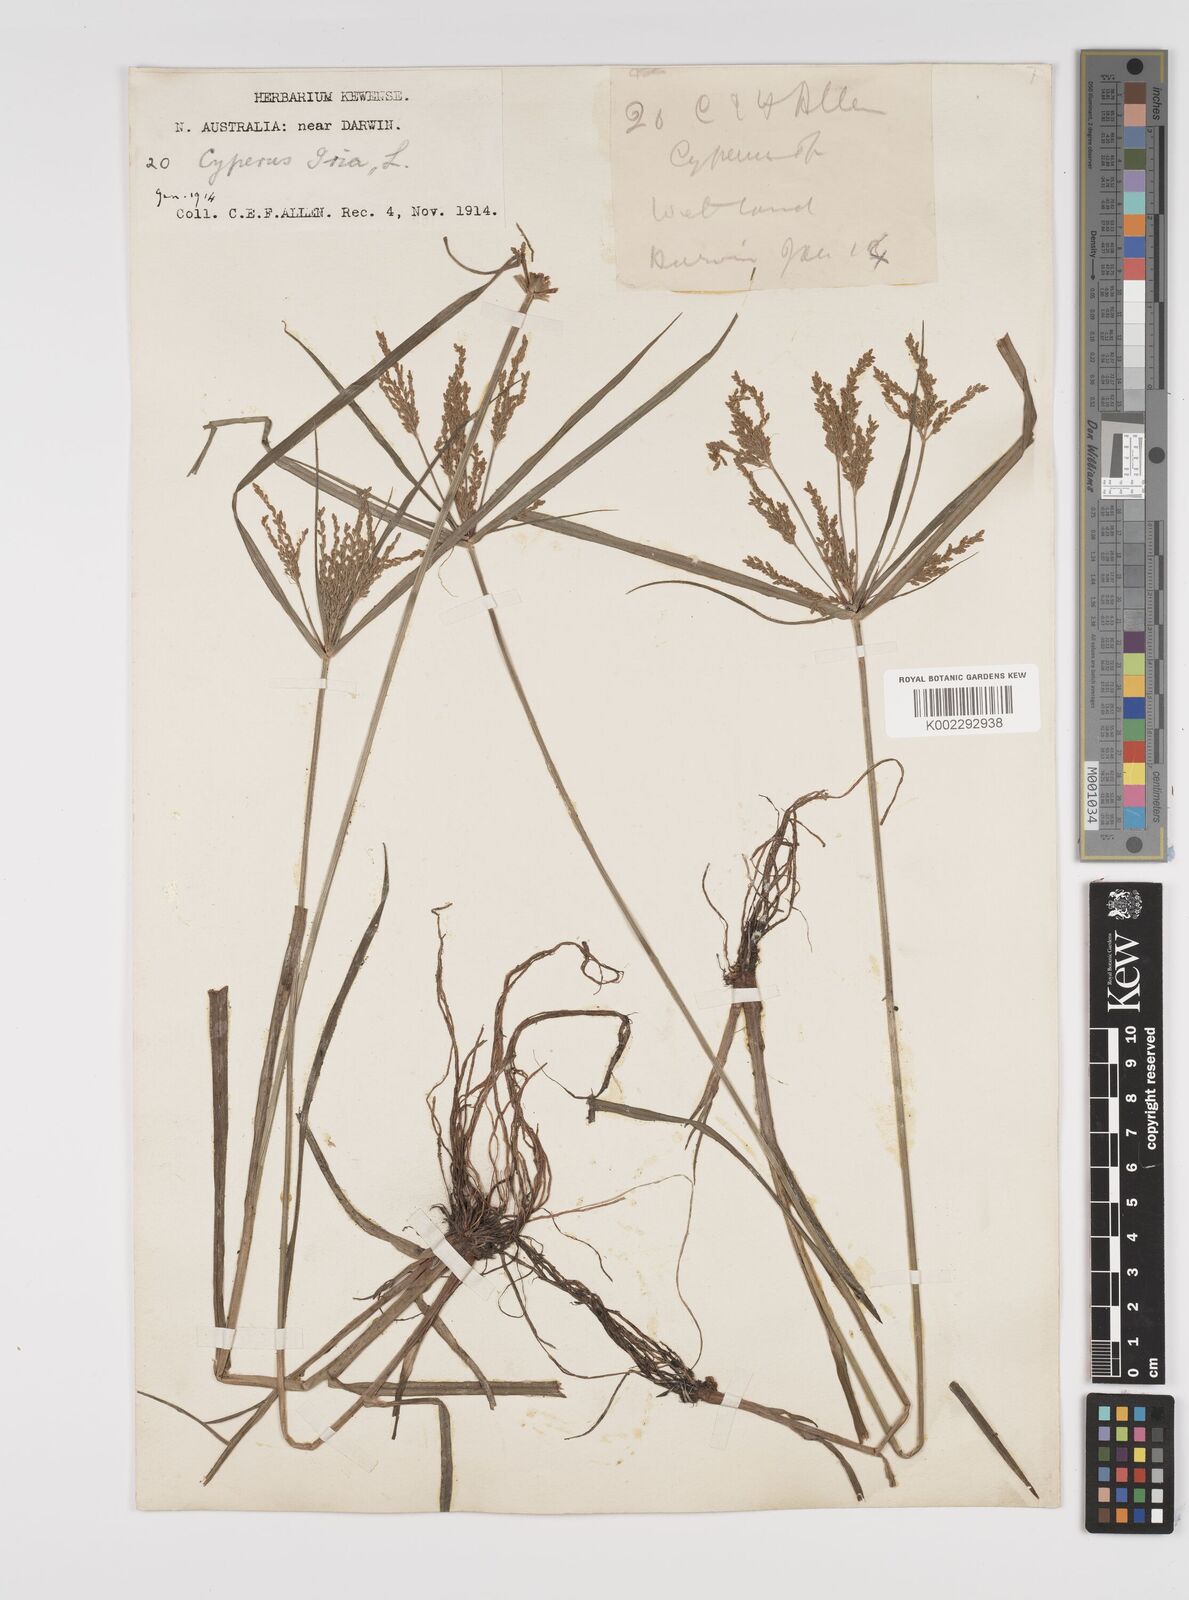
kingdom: Plantae
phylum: Tracheophyta
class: Liliopsida
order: Poales
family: Cyperaceae
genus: Cyperus
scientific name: Cyperus iria
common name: Ricefield flatsedge
